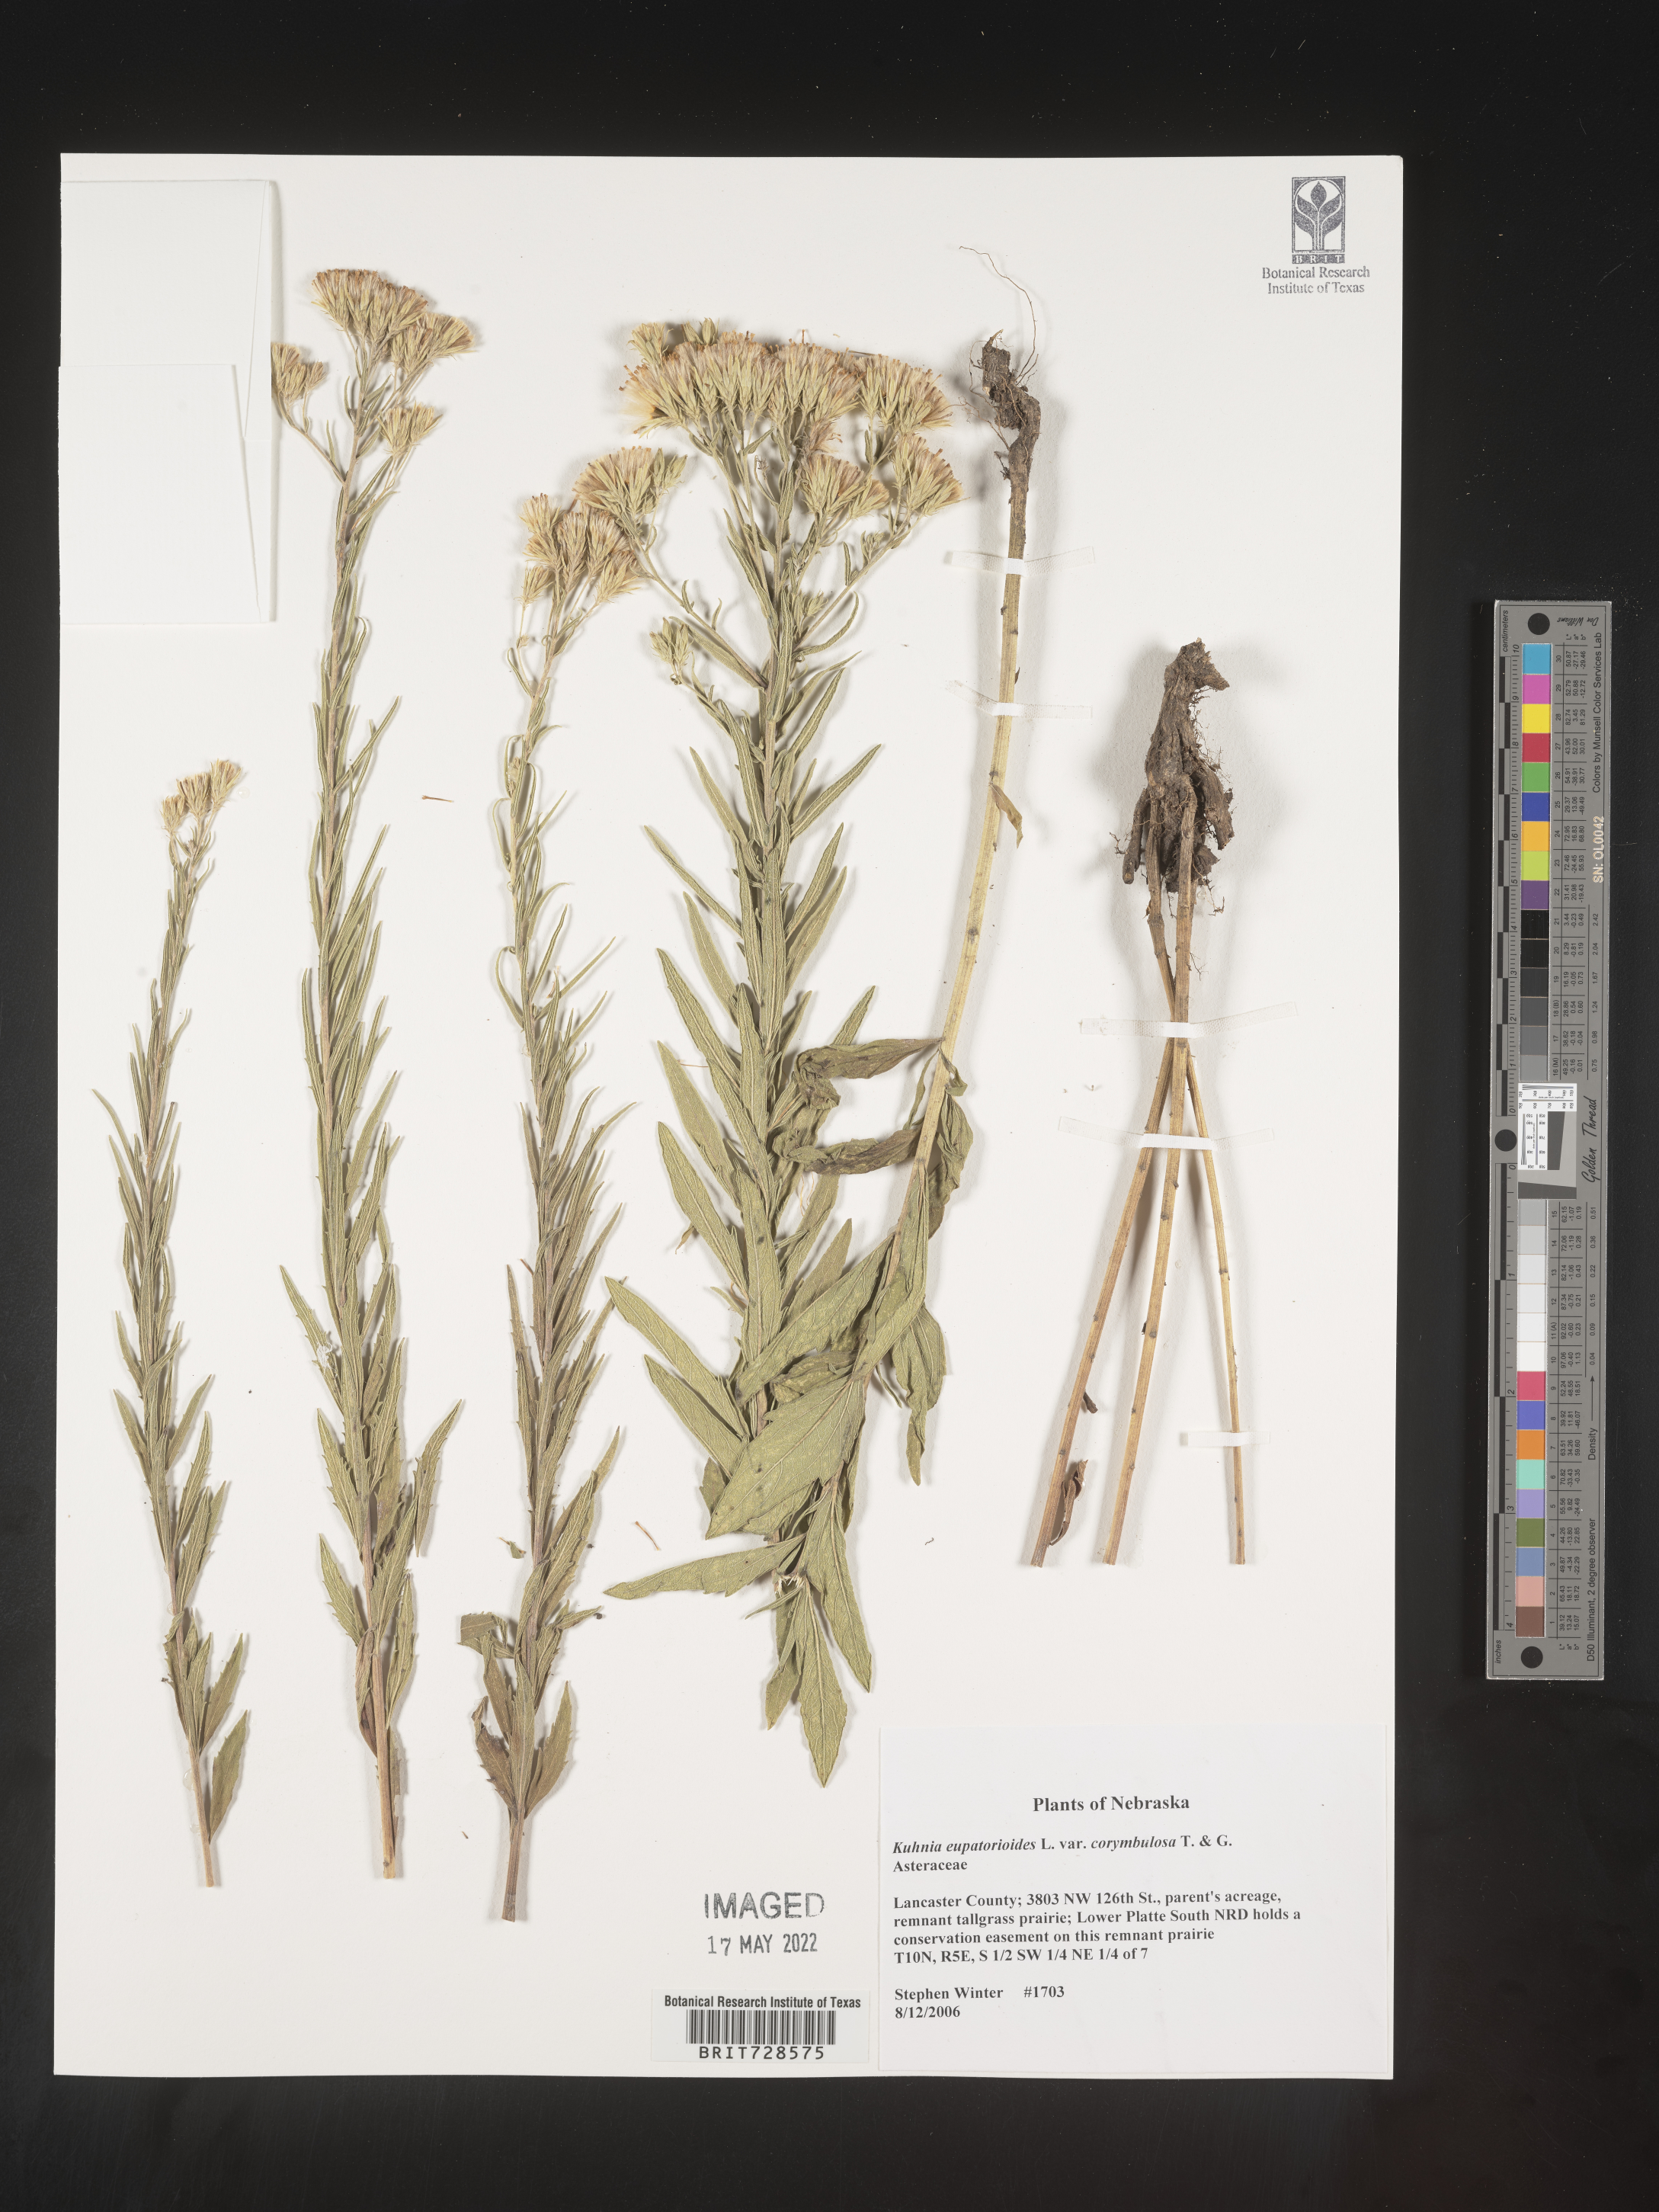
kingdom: Animalia
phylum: Platyhelminthes
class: Monogenea
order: Mazocraeidea
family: Mazocraeidae
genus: Kuhnia
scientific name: Kuhnia
